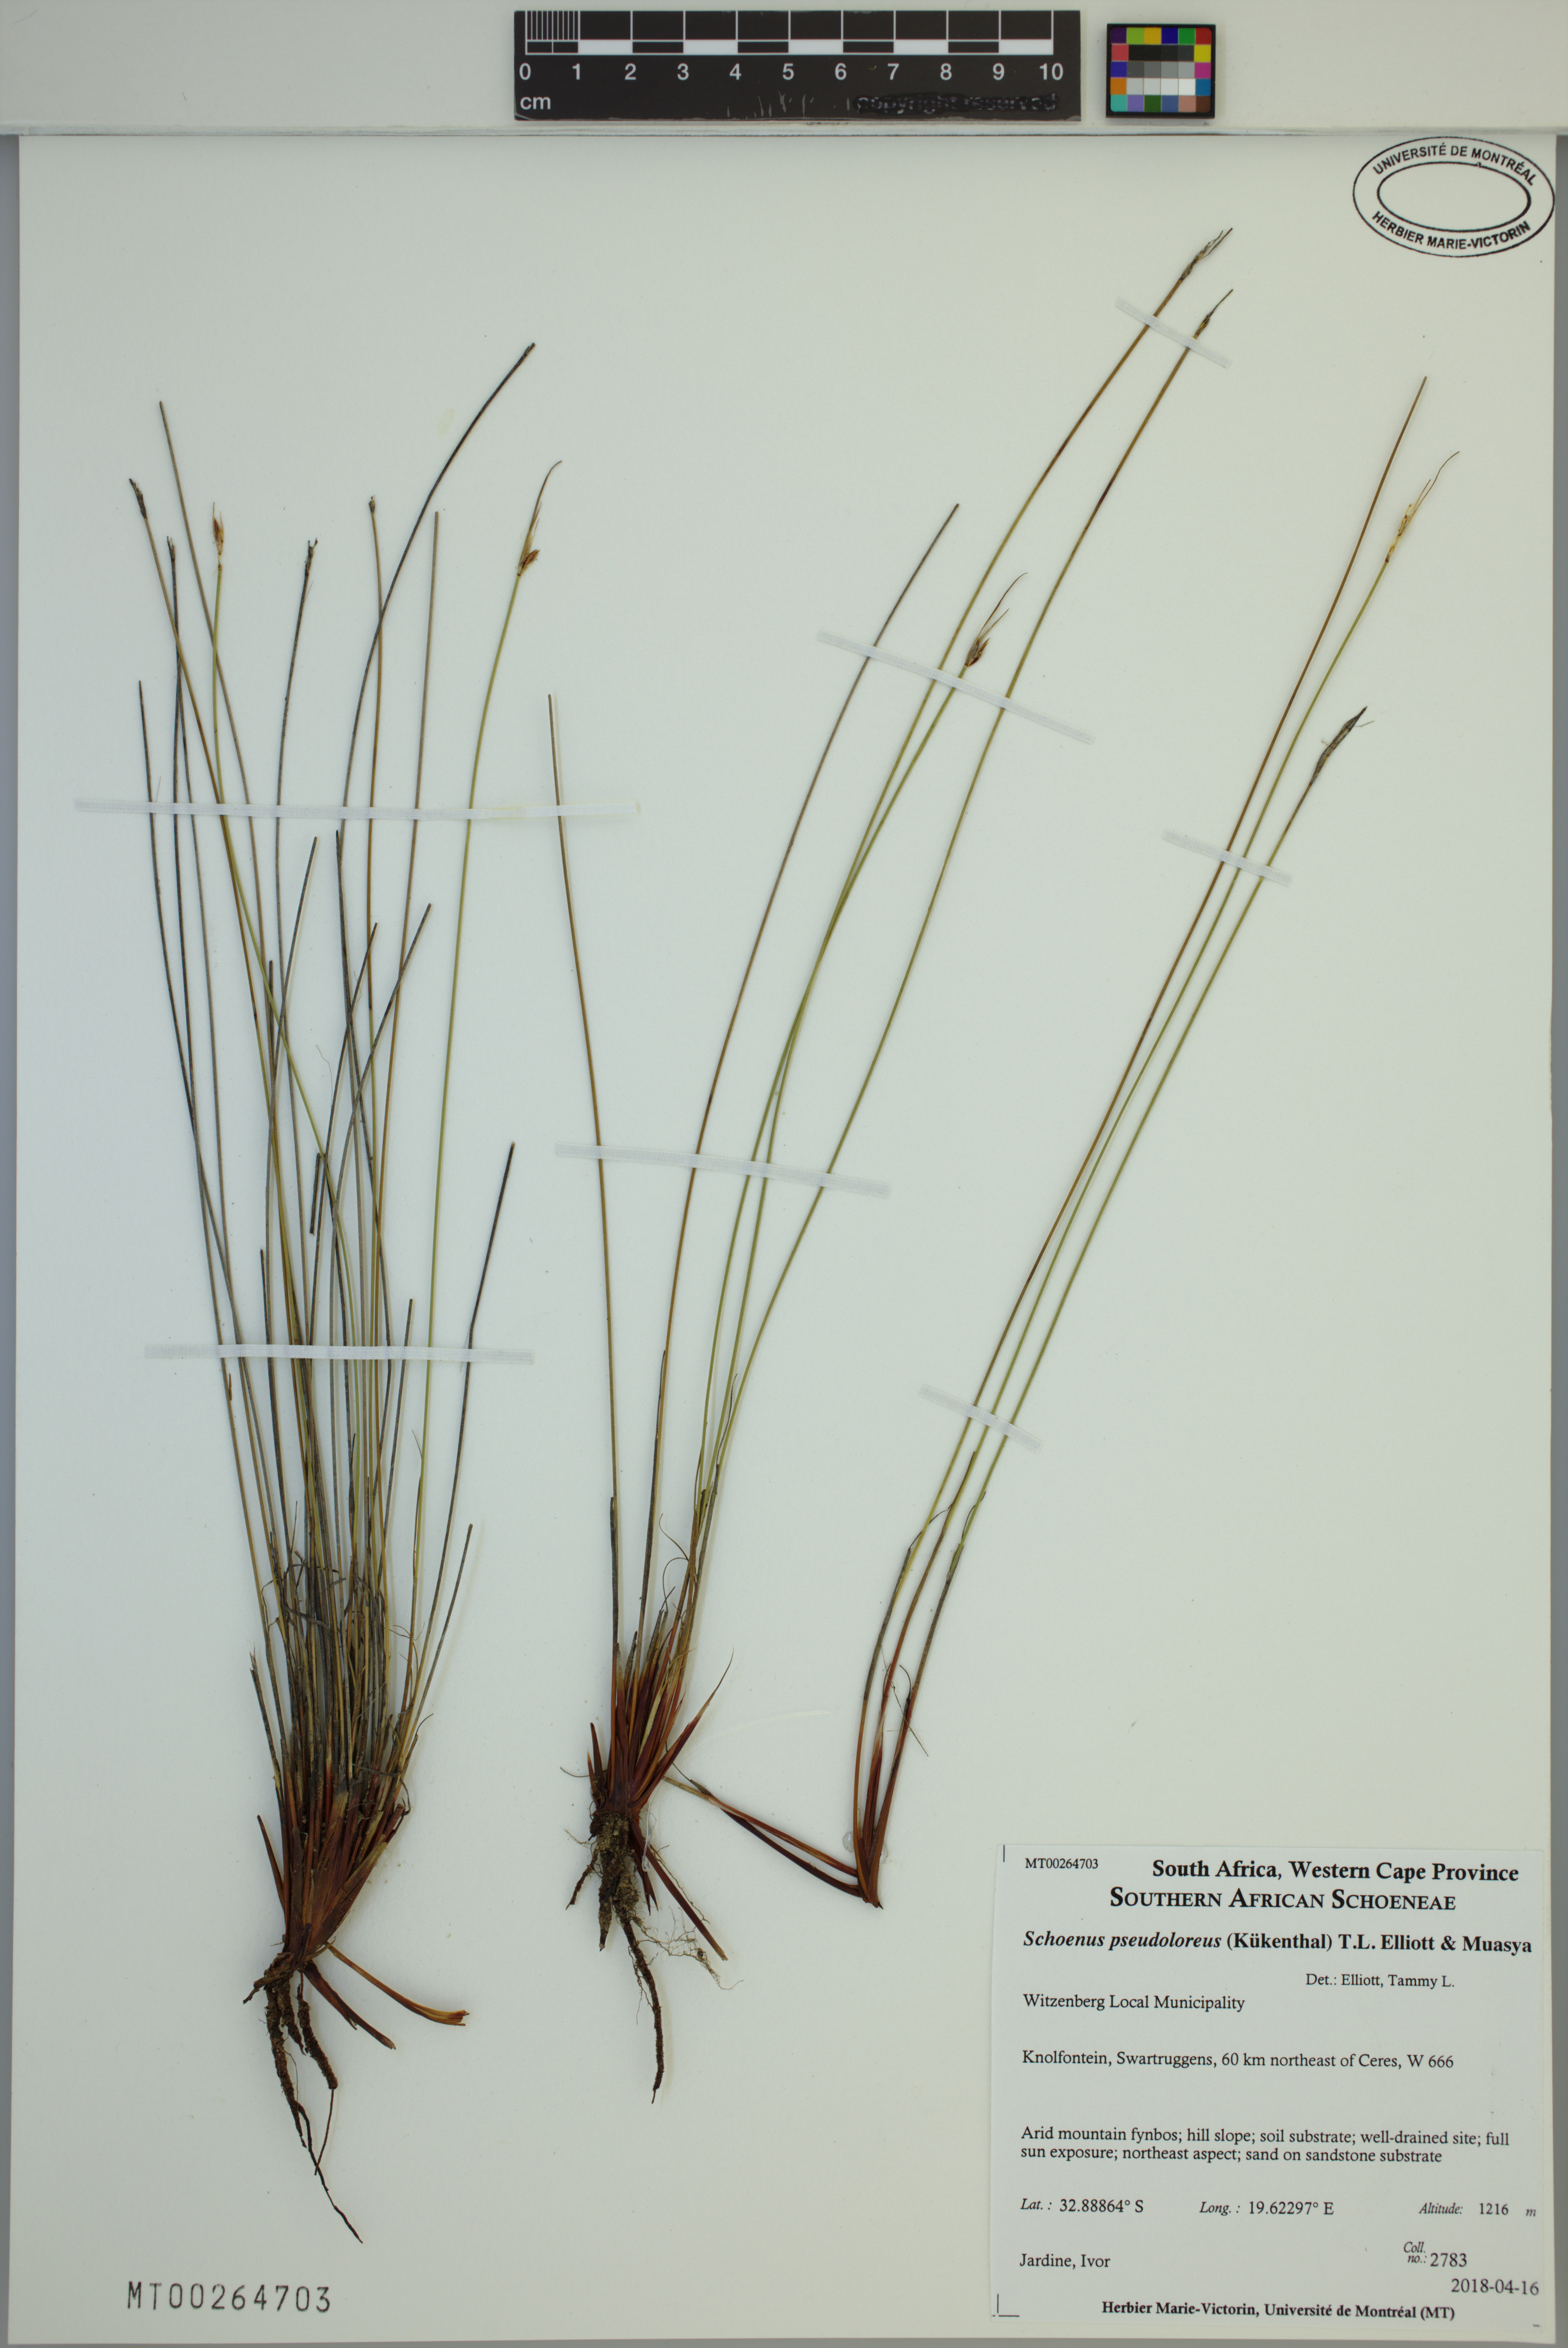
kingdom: Plantae
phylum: Tracheophyta
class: Liliopsida
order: Poales
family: Cyperaceae
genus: Schoenus
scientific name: Schoenus pseudoloreus
